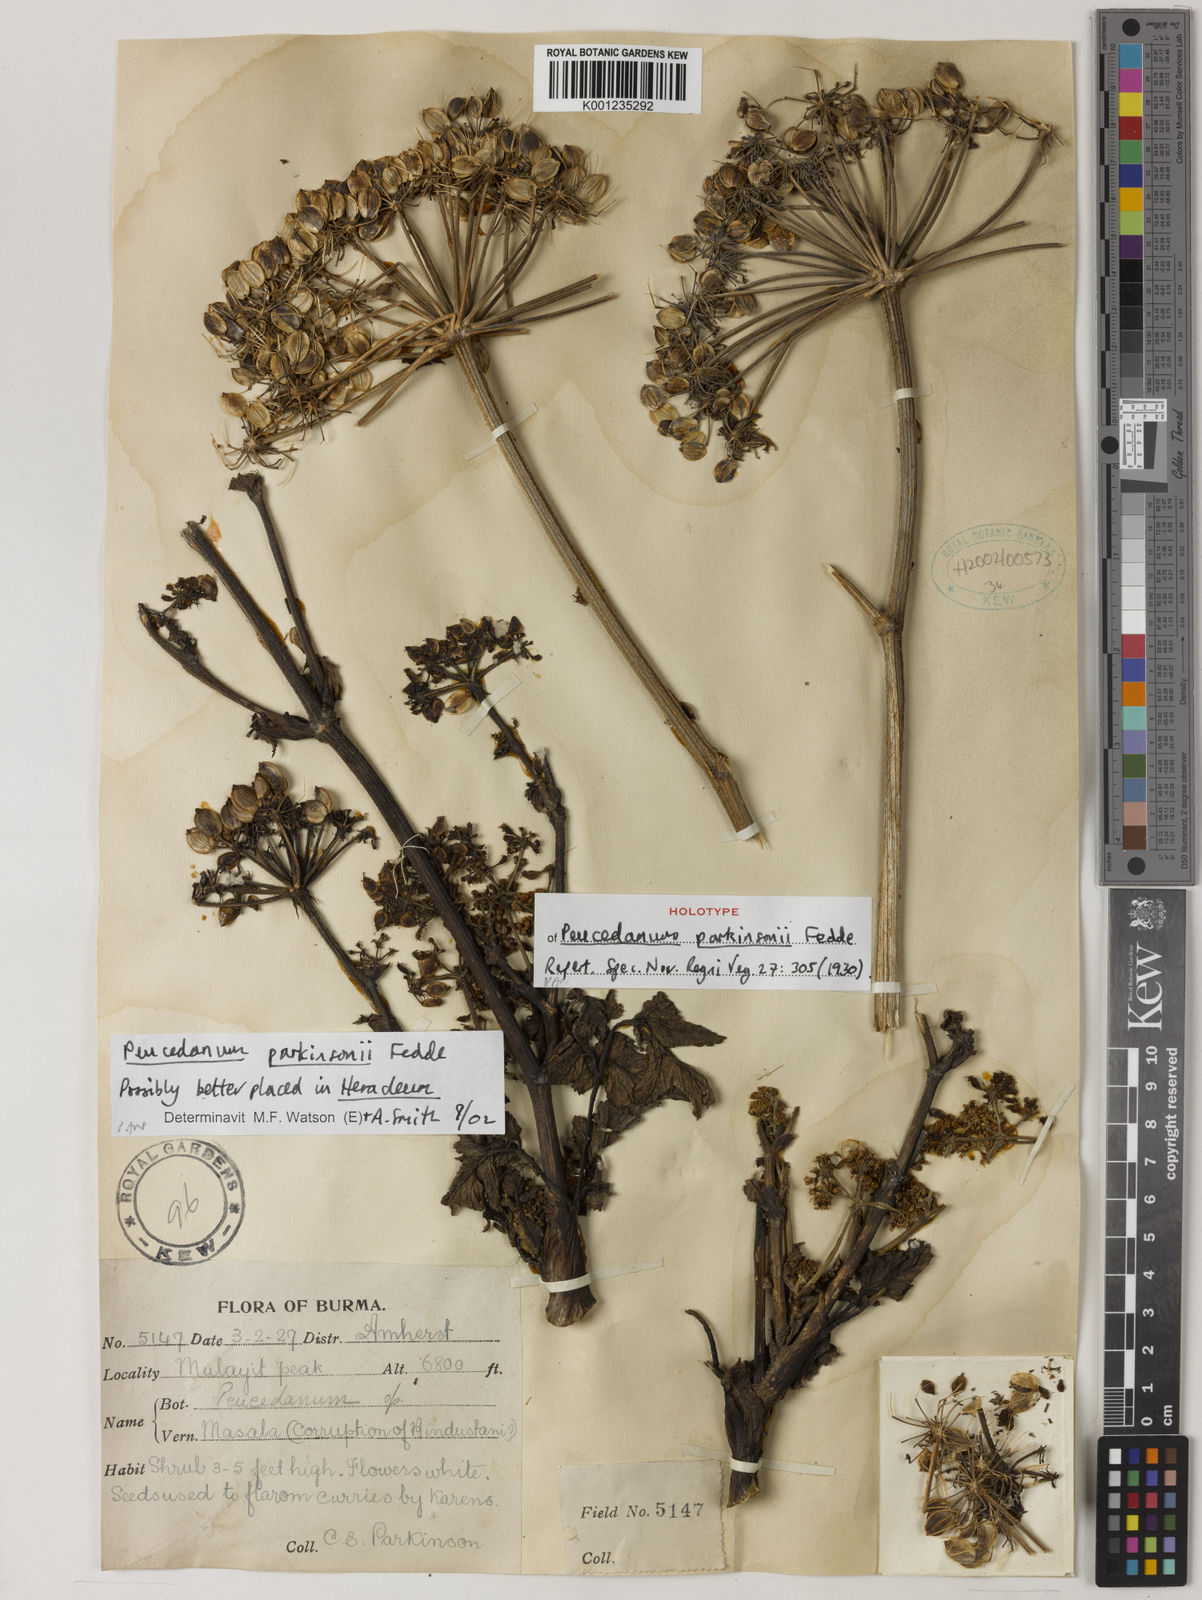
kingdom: Plantae
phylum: Tracheophyta
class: Magnoliopsida
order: Apiales
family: Apiaceae
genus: Peucedanum
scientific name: Peucedanum parkinsonii
